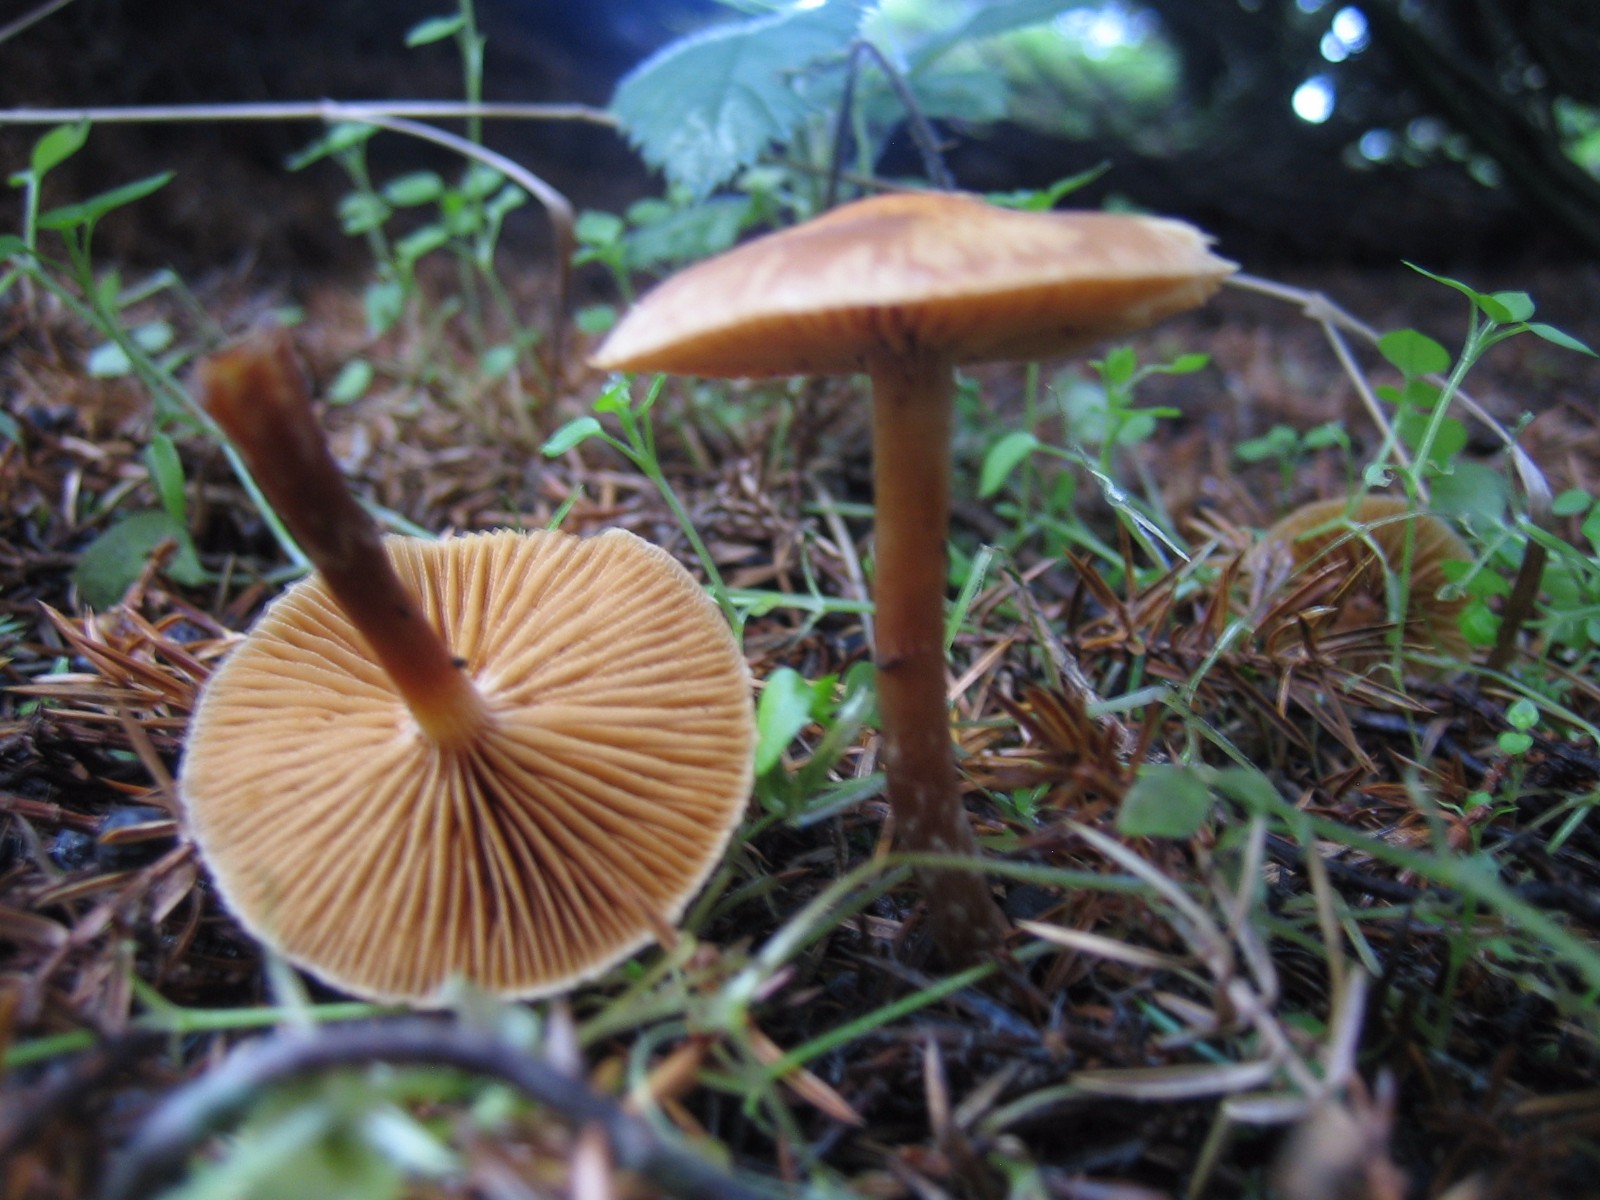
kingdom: Fungi
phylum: Basidiomycota
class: Agaricomycetes
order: Agaricales
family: Cortinariaceae
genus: Cortinarius
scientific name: Cortinarius
